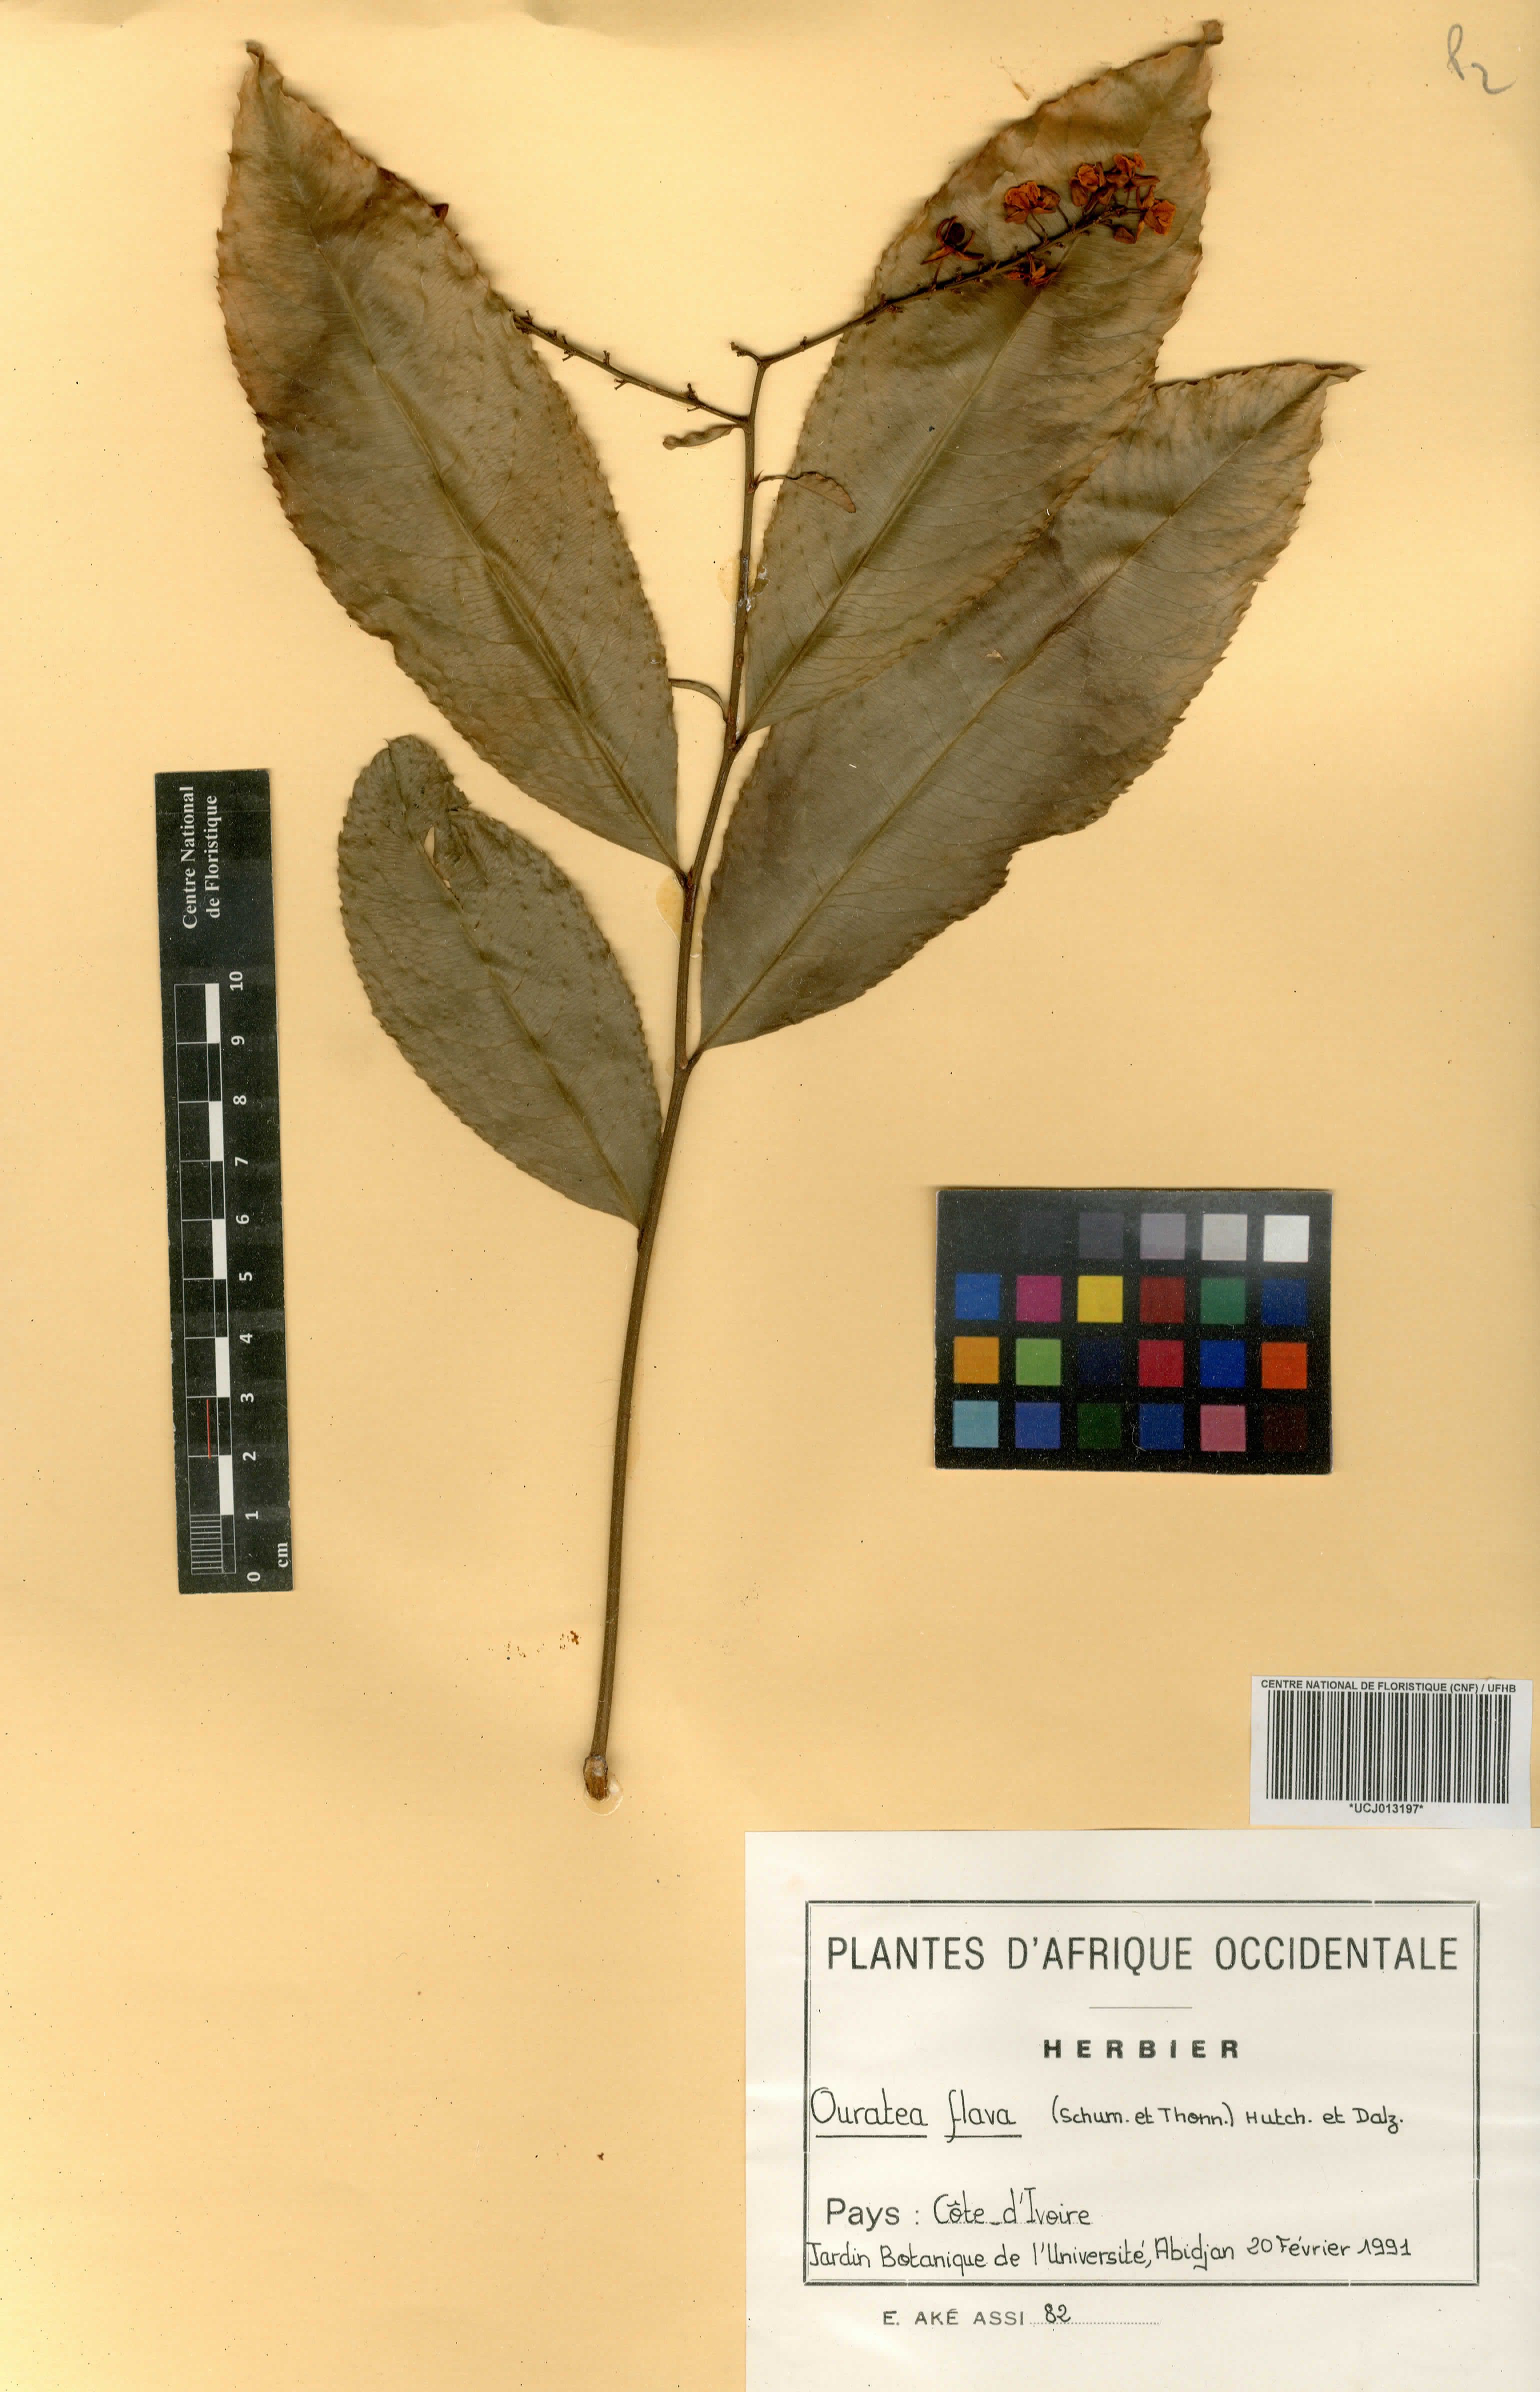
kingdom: Plantae
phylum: Tracheophyta
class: Magnoliopsida
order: Malpighiales
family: Ochnaceae
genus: Campylospermum
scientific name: Campylospermum flavum
